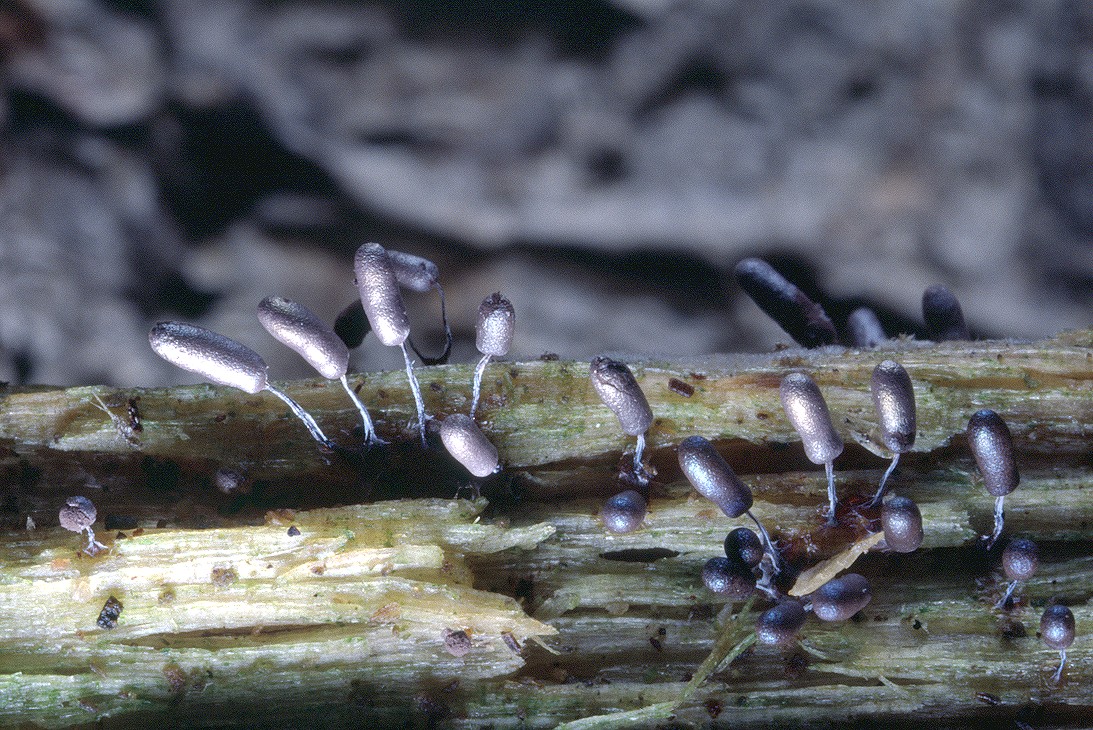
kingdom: Protozoa
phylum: Mycetozoa
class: Myxomycetes
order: Stemonitidales
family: Stemonitidaceae
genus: Stemonitopsis
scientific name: Stemonitopsis typhina
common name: skinnende støvkølle
